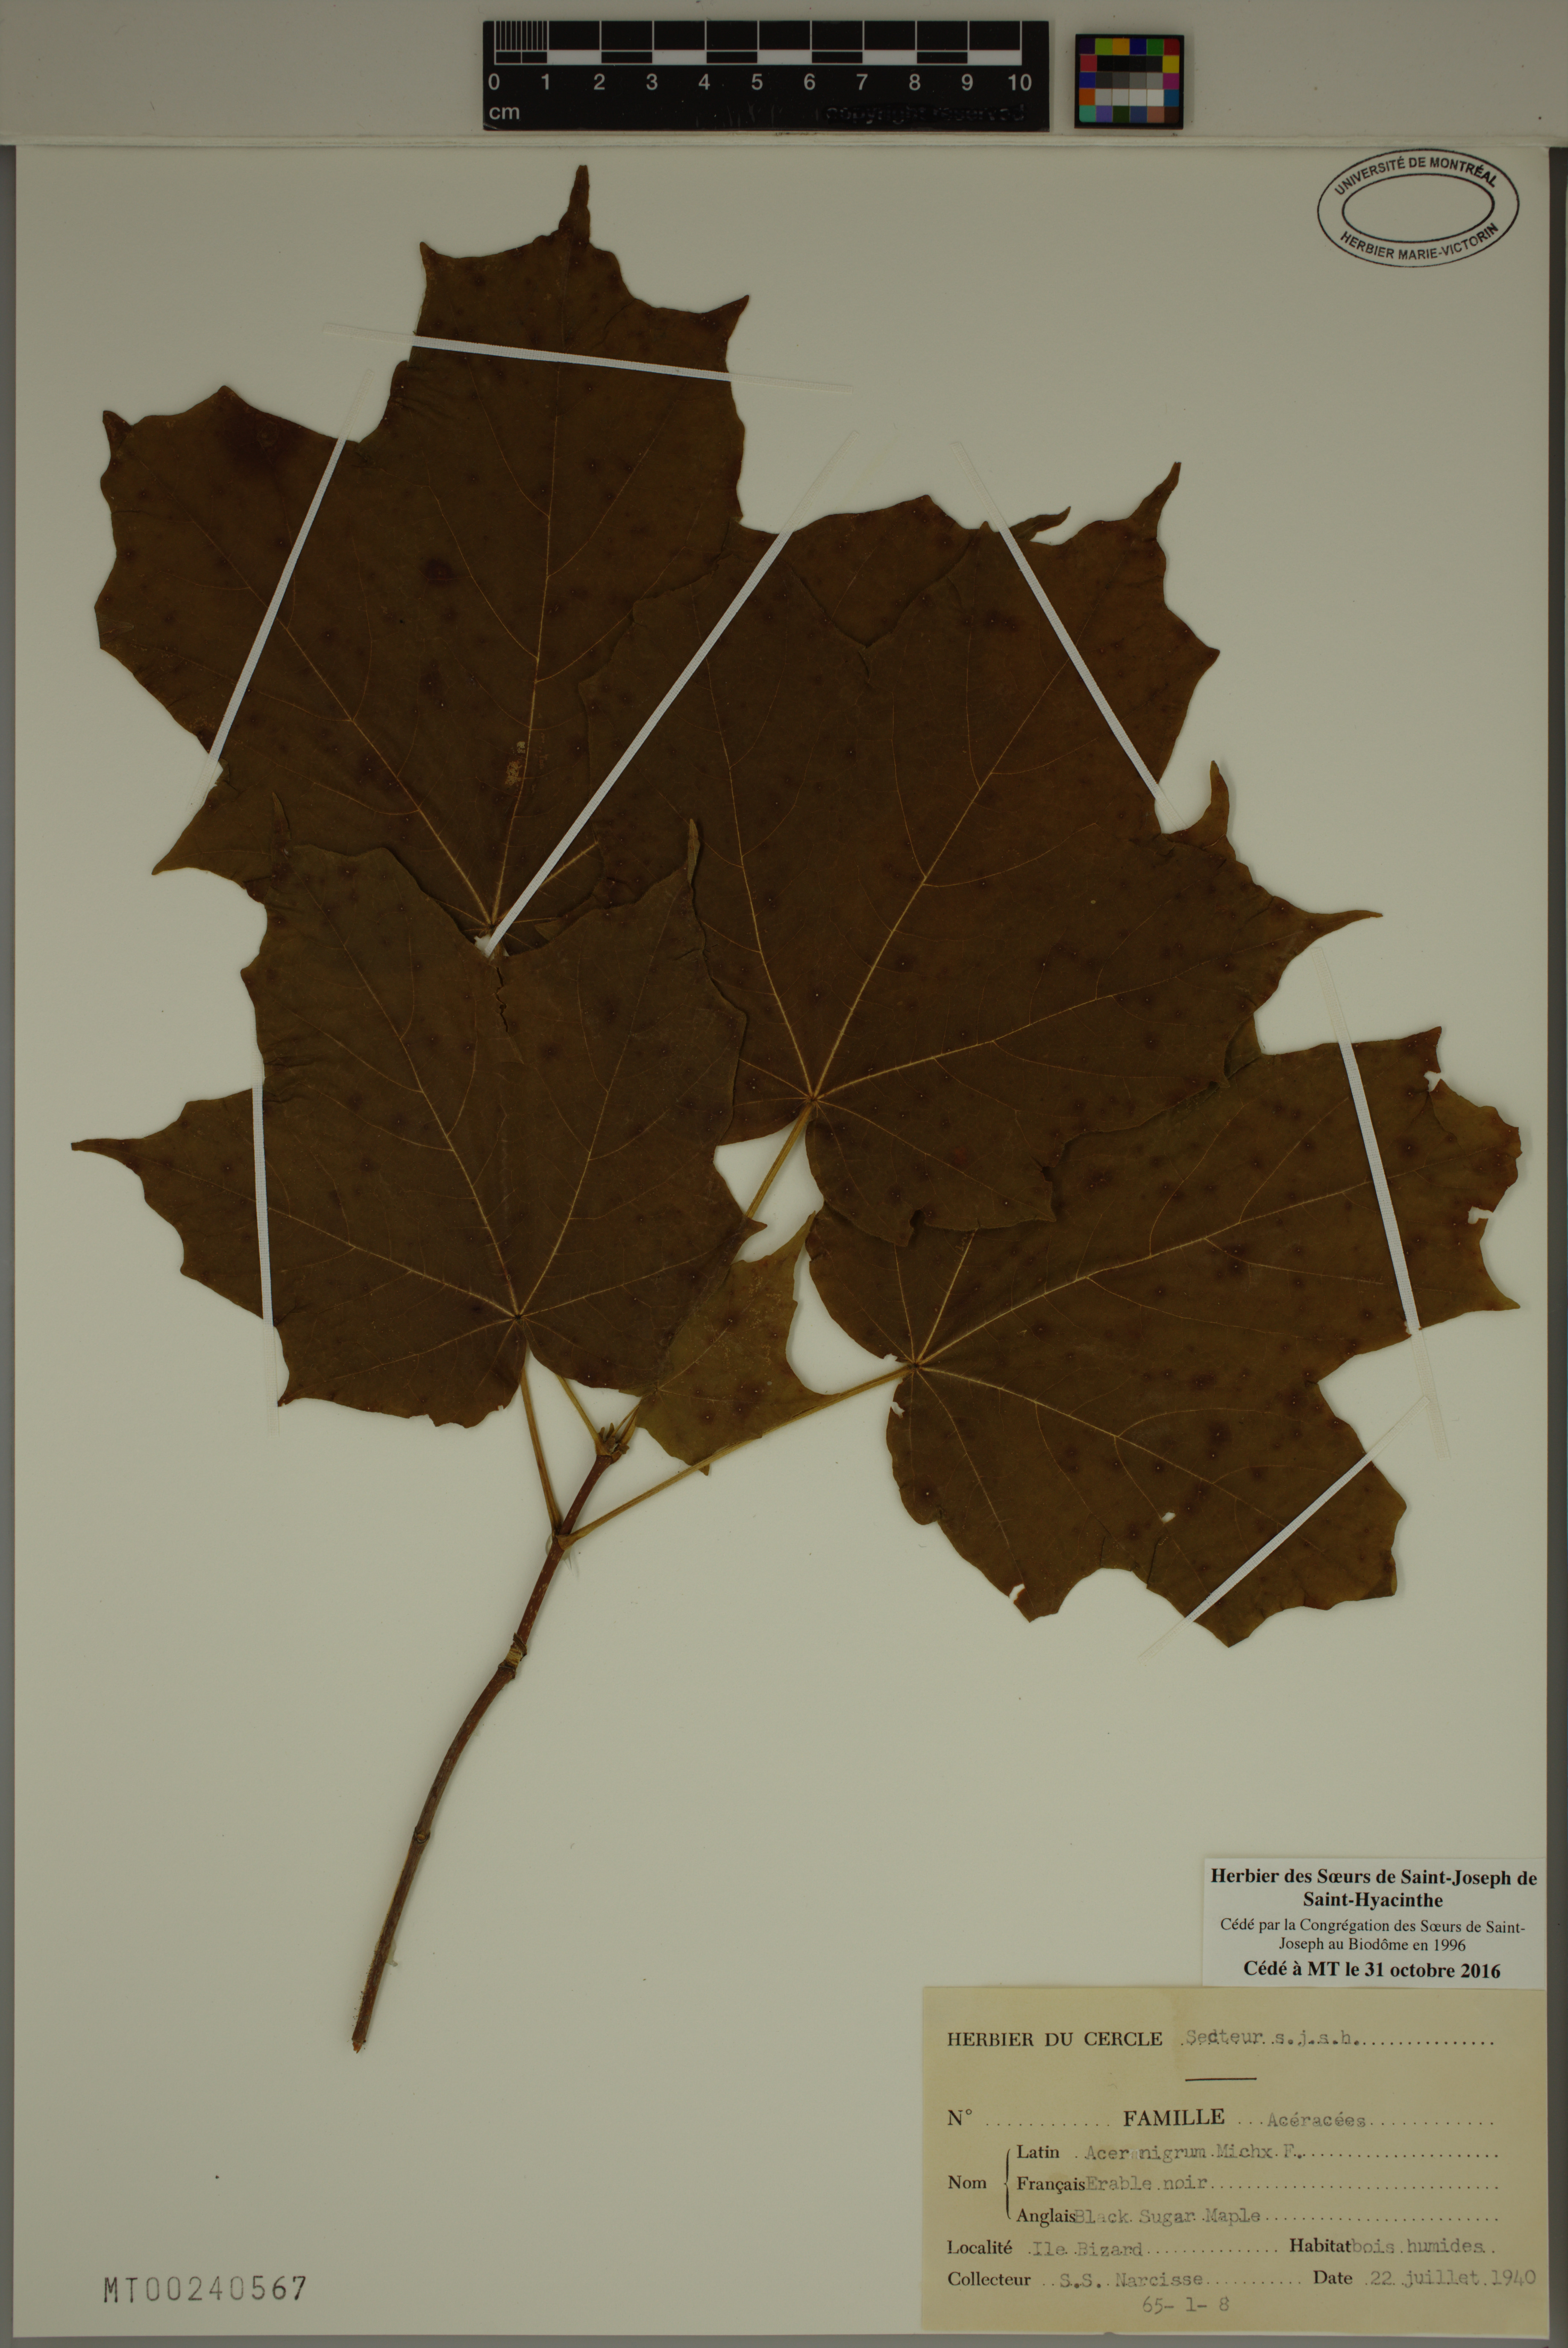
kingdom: Plantae
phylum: Tracheophyta
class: Magnoliopsida
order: Sapindales
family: Sapindaceae
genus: Acer
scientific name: Acer nigrum
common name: Black maple
